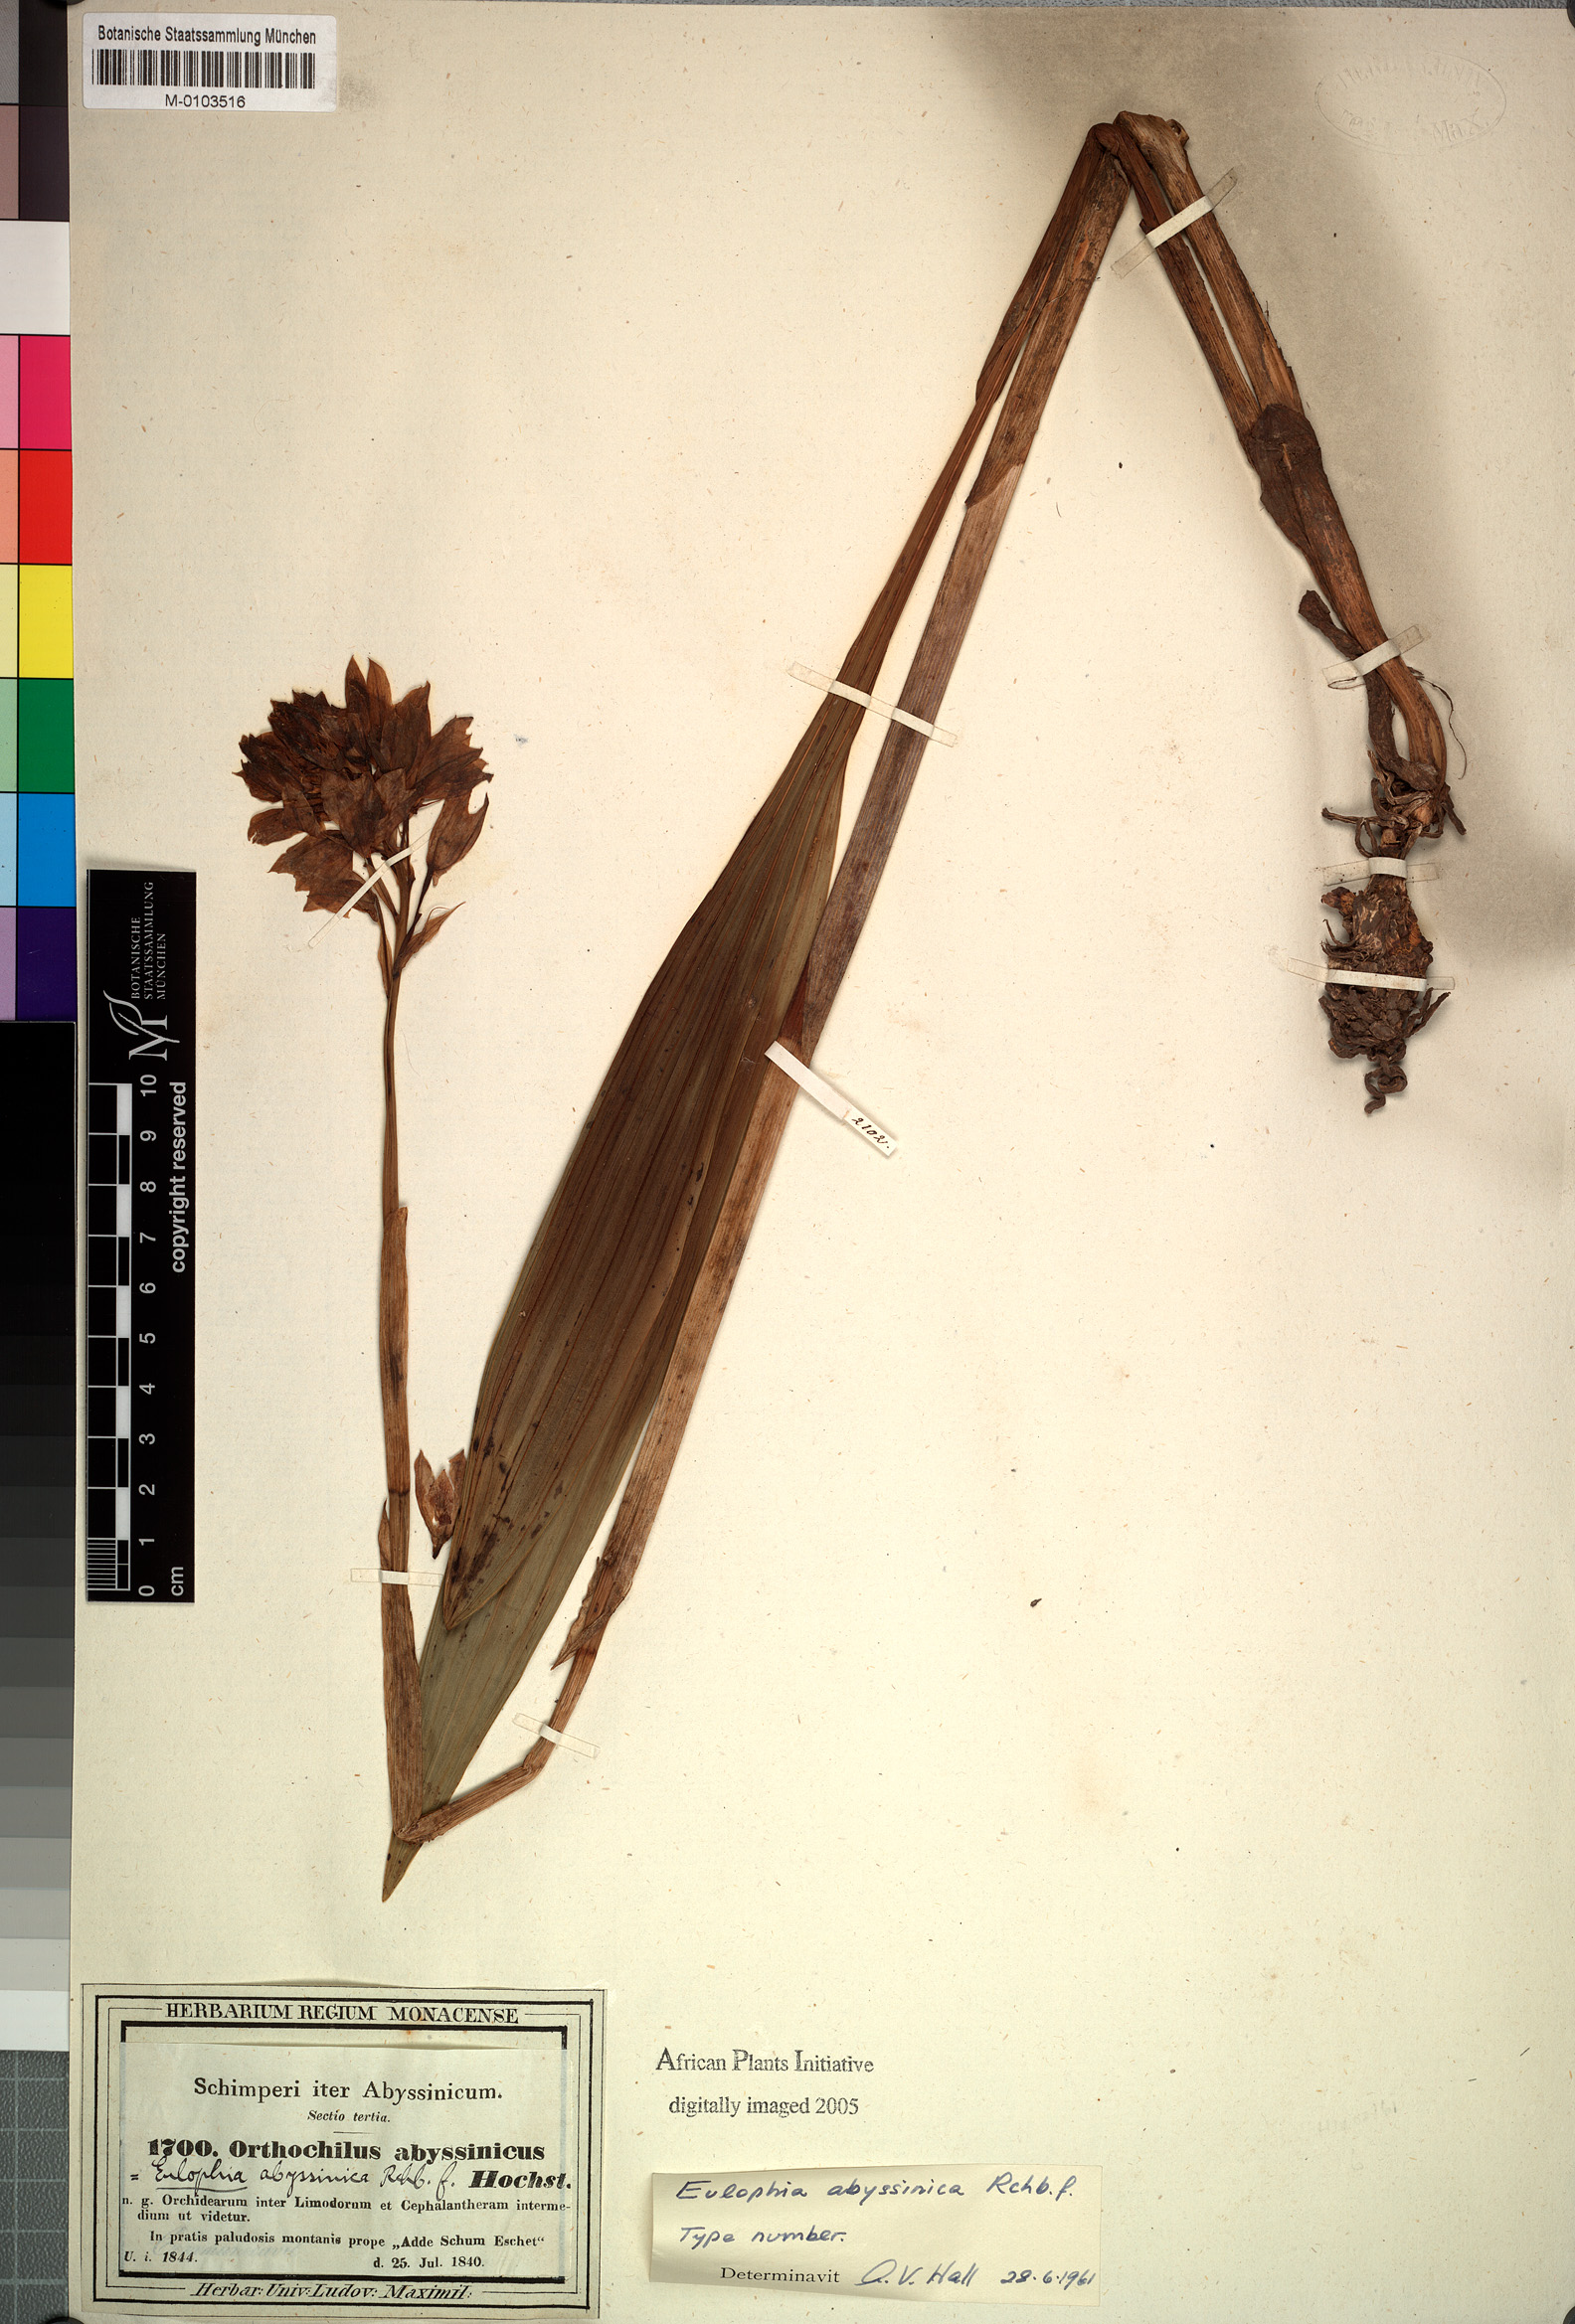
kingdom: Plantae
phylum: Tracheophyta
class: Liliopsida
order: Asparagales
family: Orchidaceae
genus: Eulophia
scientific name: Eulophia abyssinica
